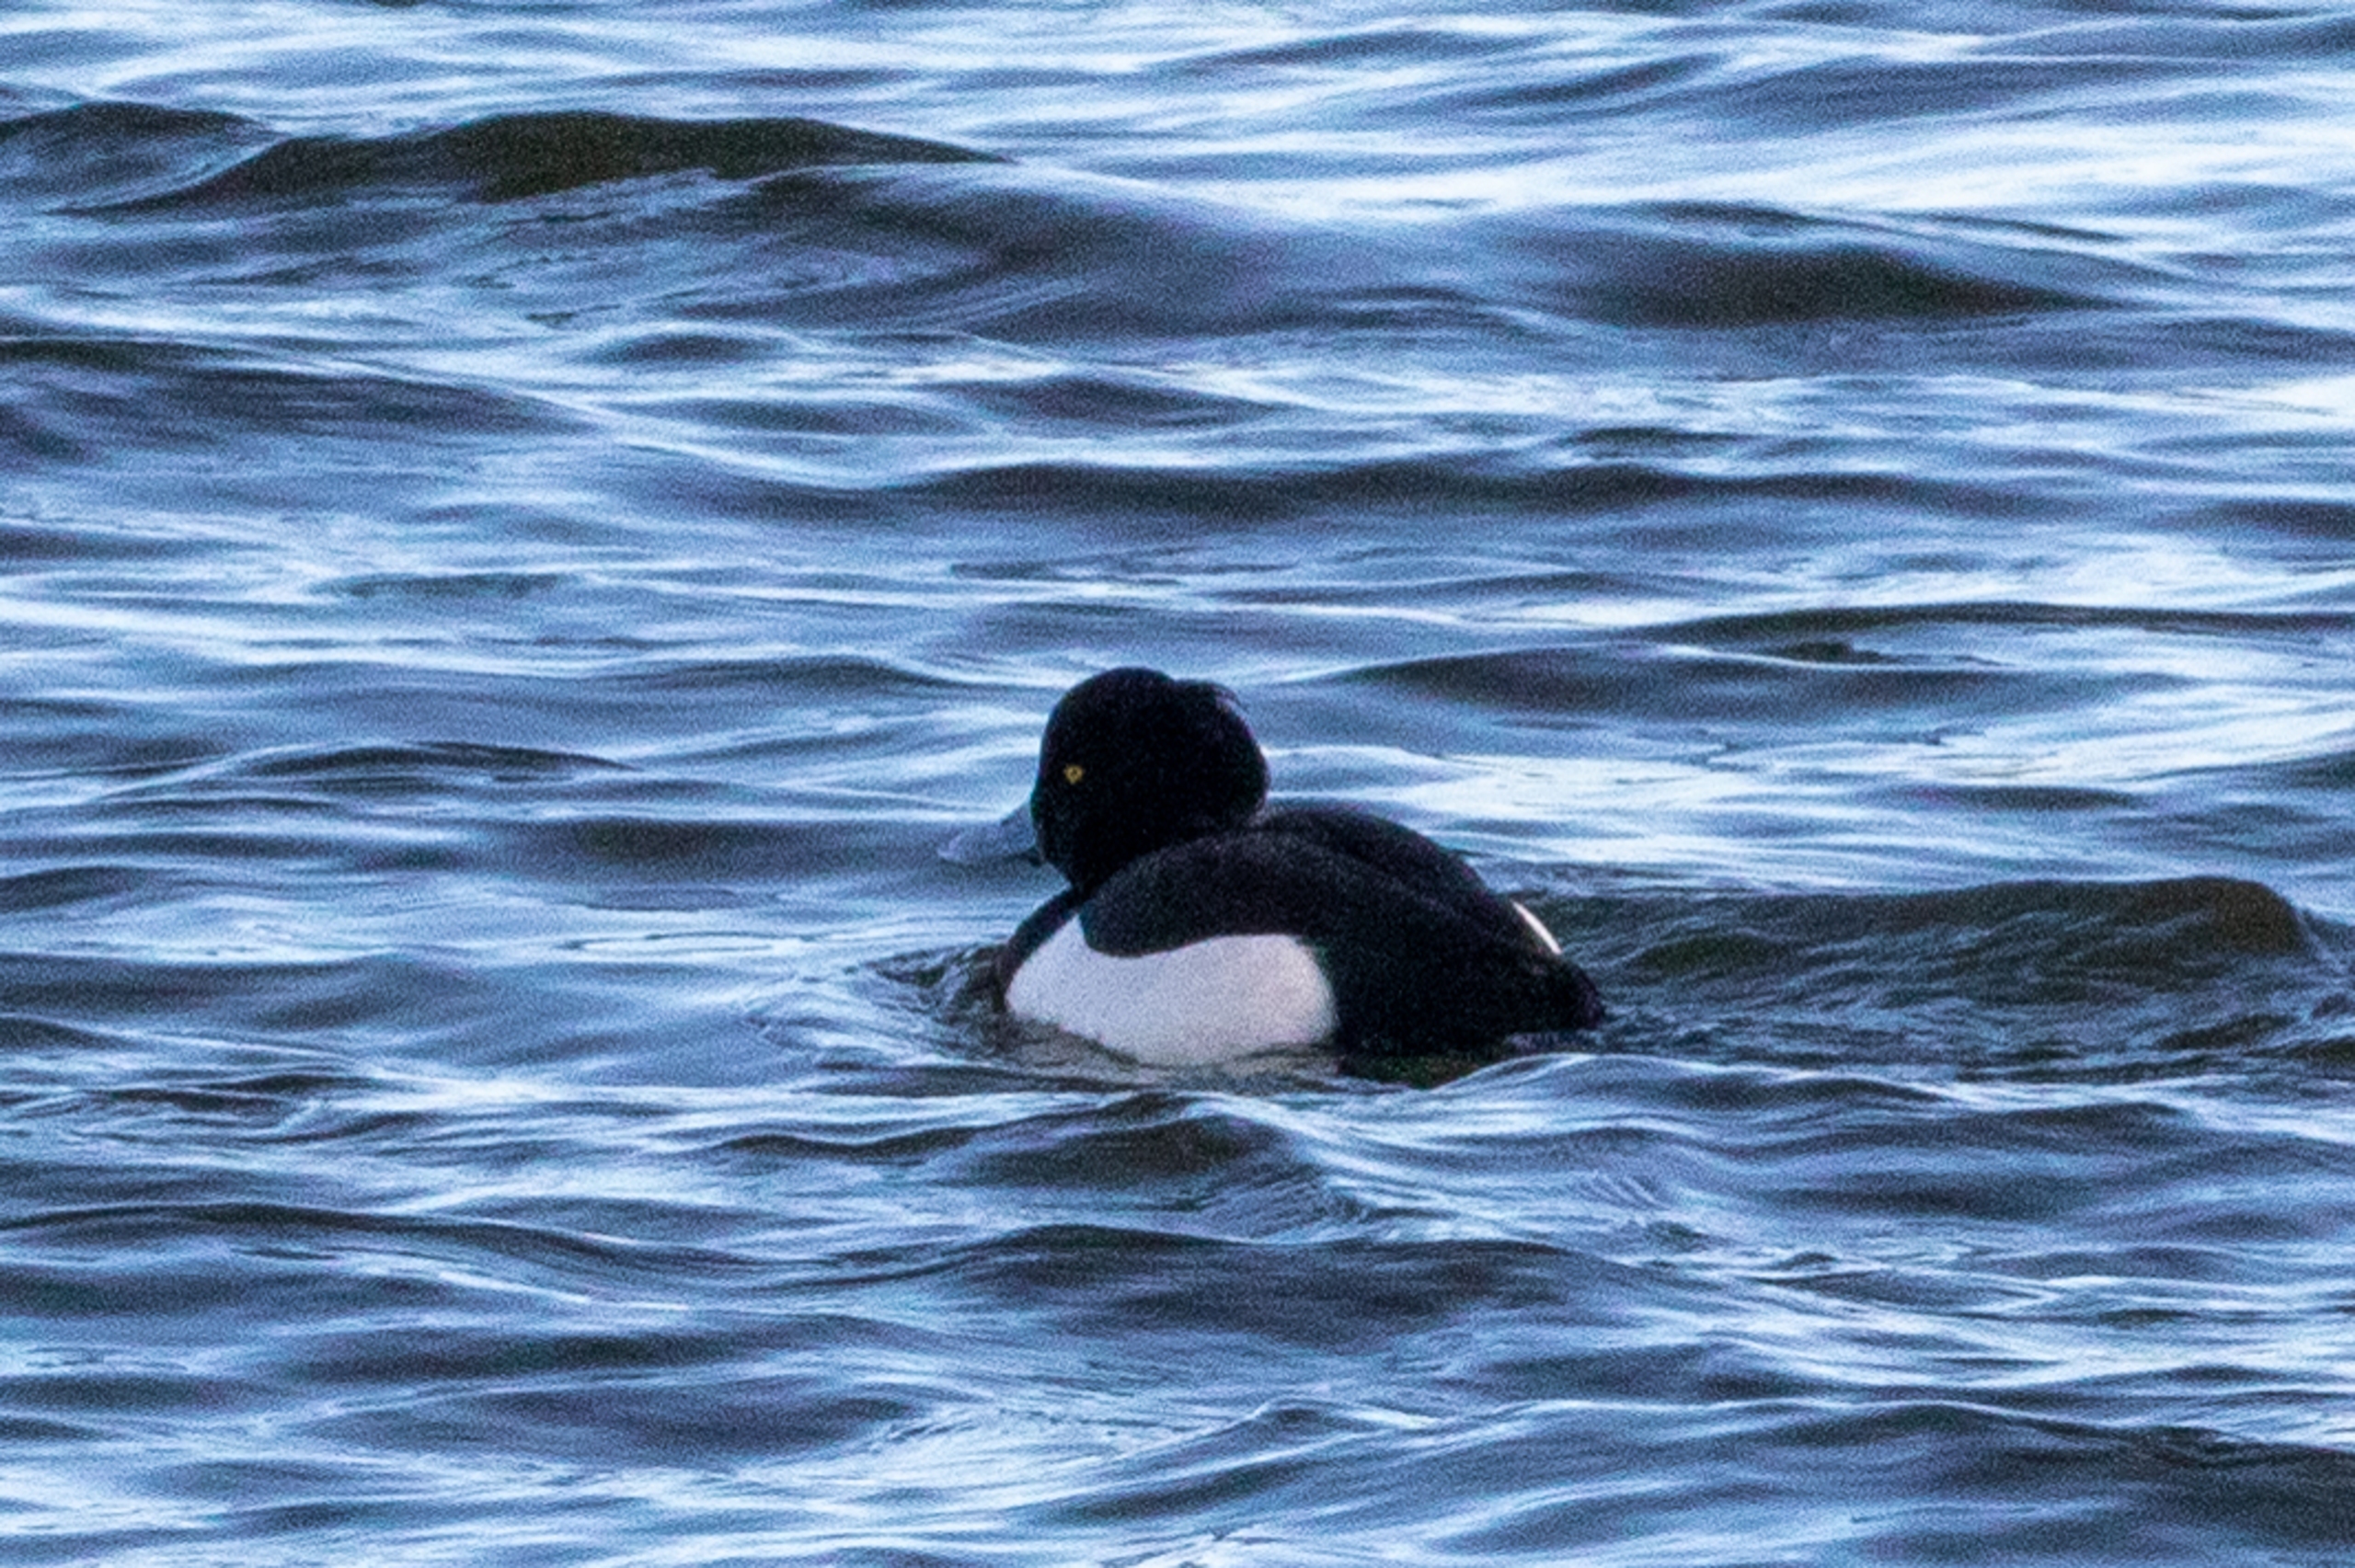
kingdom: Animalia
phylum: Chordata
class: Aves
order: Anseriformes
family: Anatidae
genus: Aythya
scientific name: Aythya fuligula
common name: Troldand
